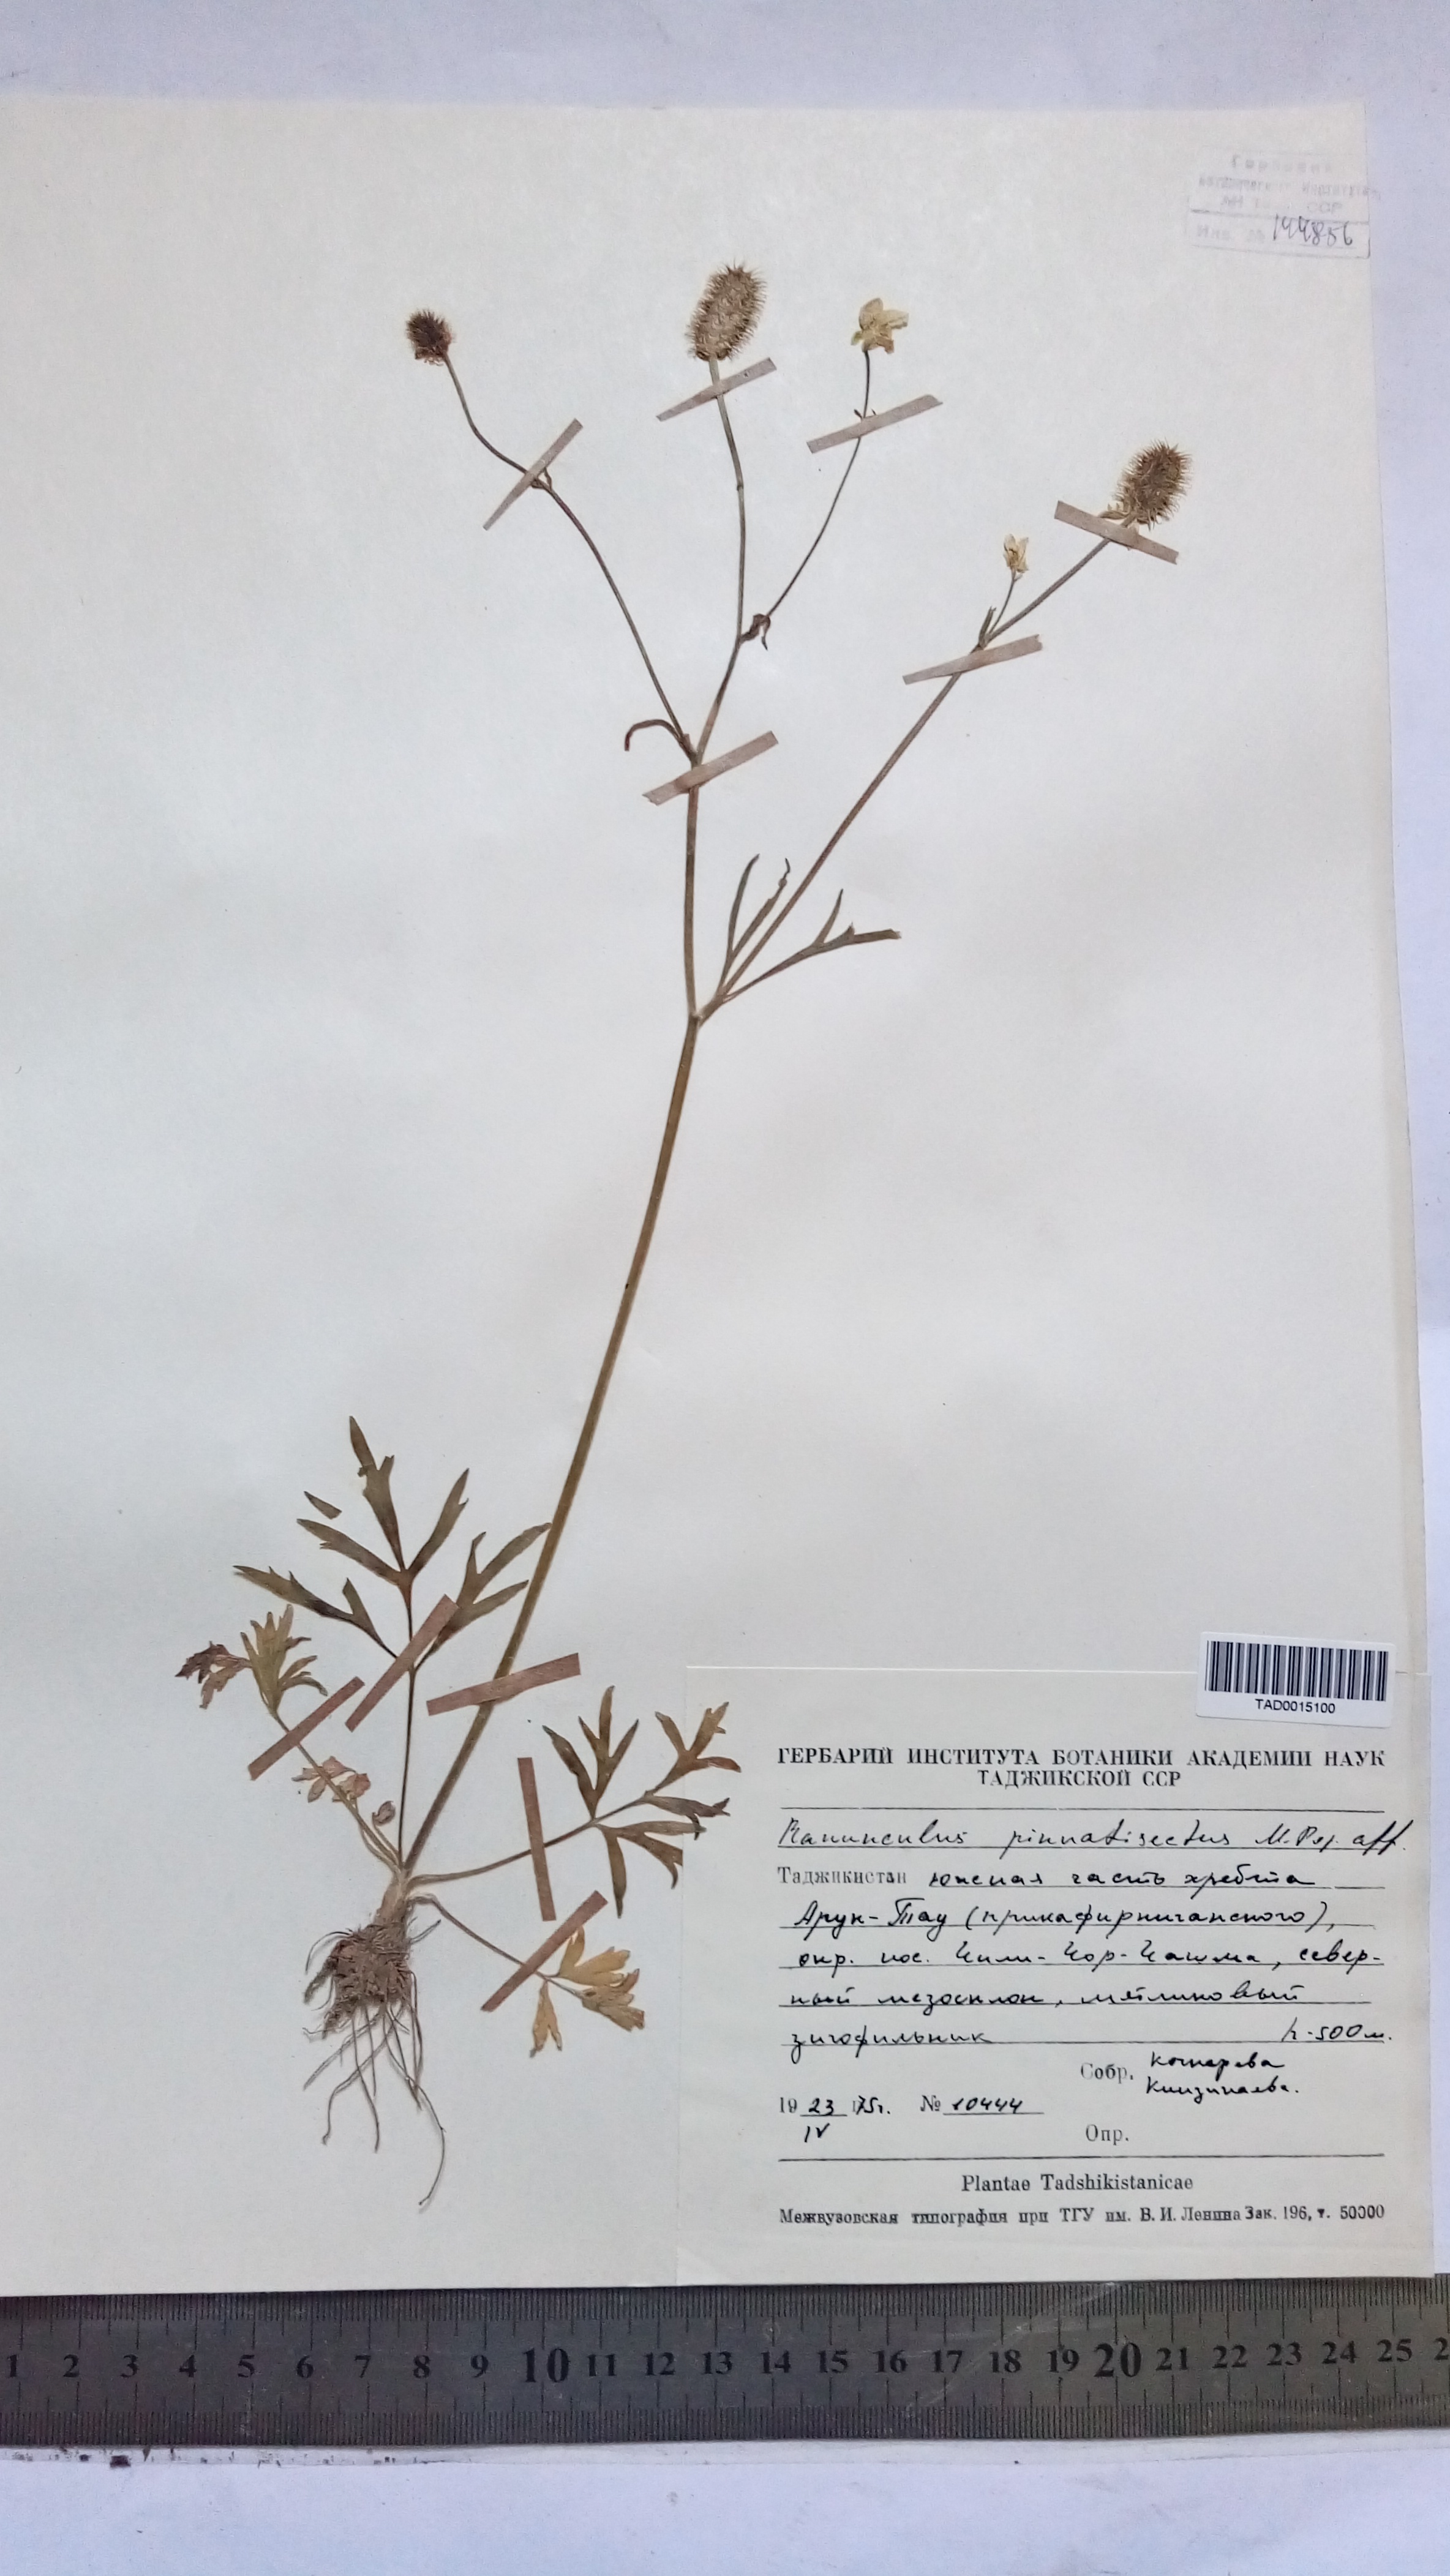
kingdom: Plantae
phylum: Tracheophyta
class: Magnoliopsida
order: Ranunculales
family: Ranunculaceae
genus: Ranunculus
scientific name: Ranunculus pinnatisectus
